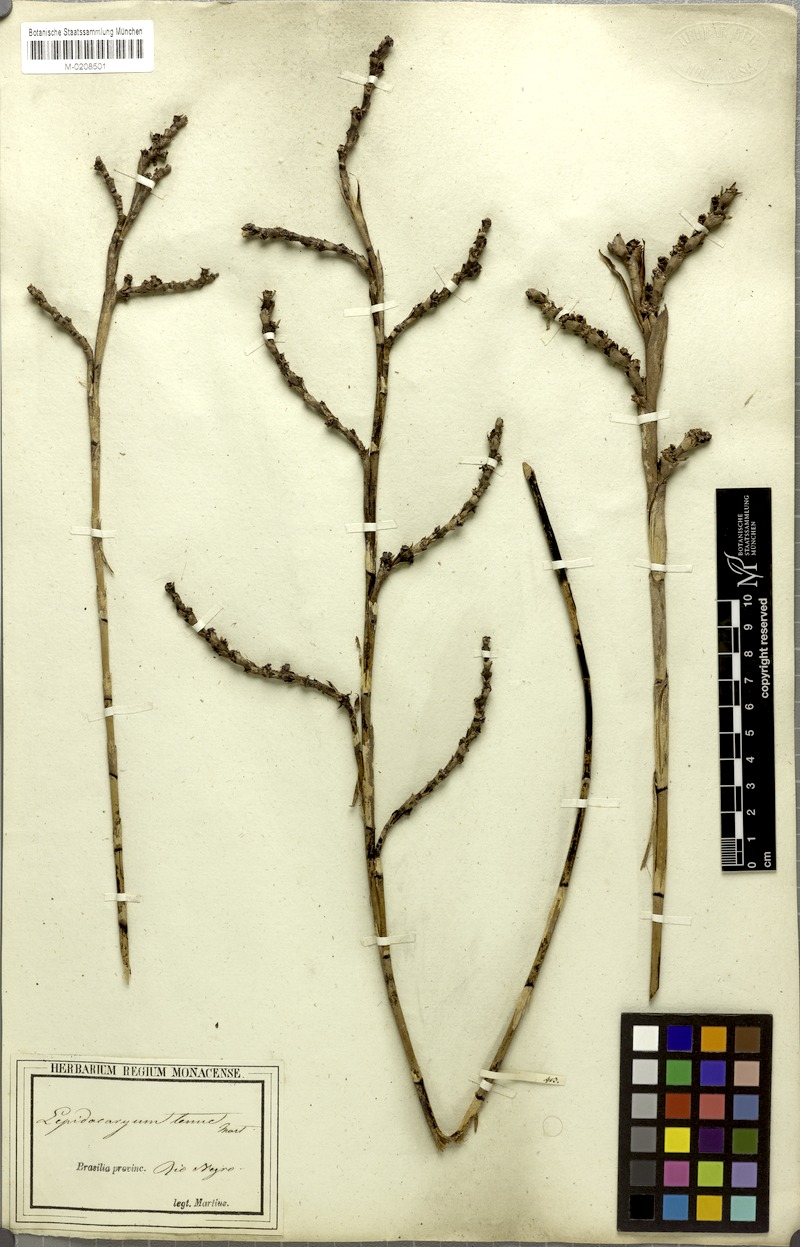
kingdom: Plantae
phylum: Tracheophyta
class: Liliopsida
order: Arecales
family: Arecaceae
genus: Lepidocaryum
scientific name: Lepidocaryum tenue
